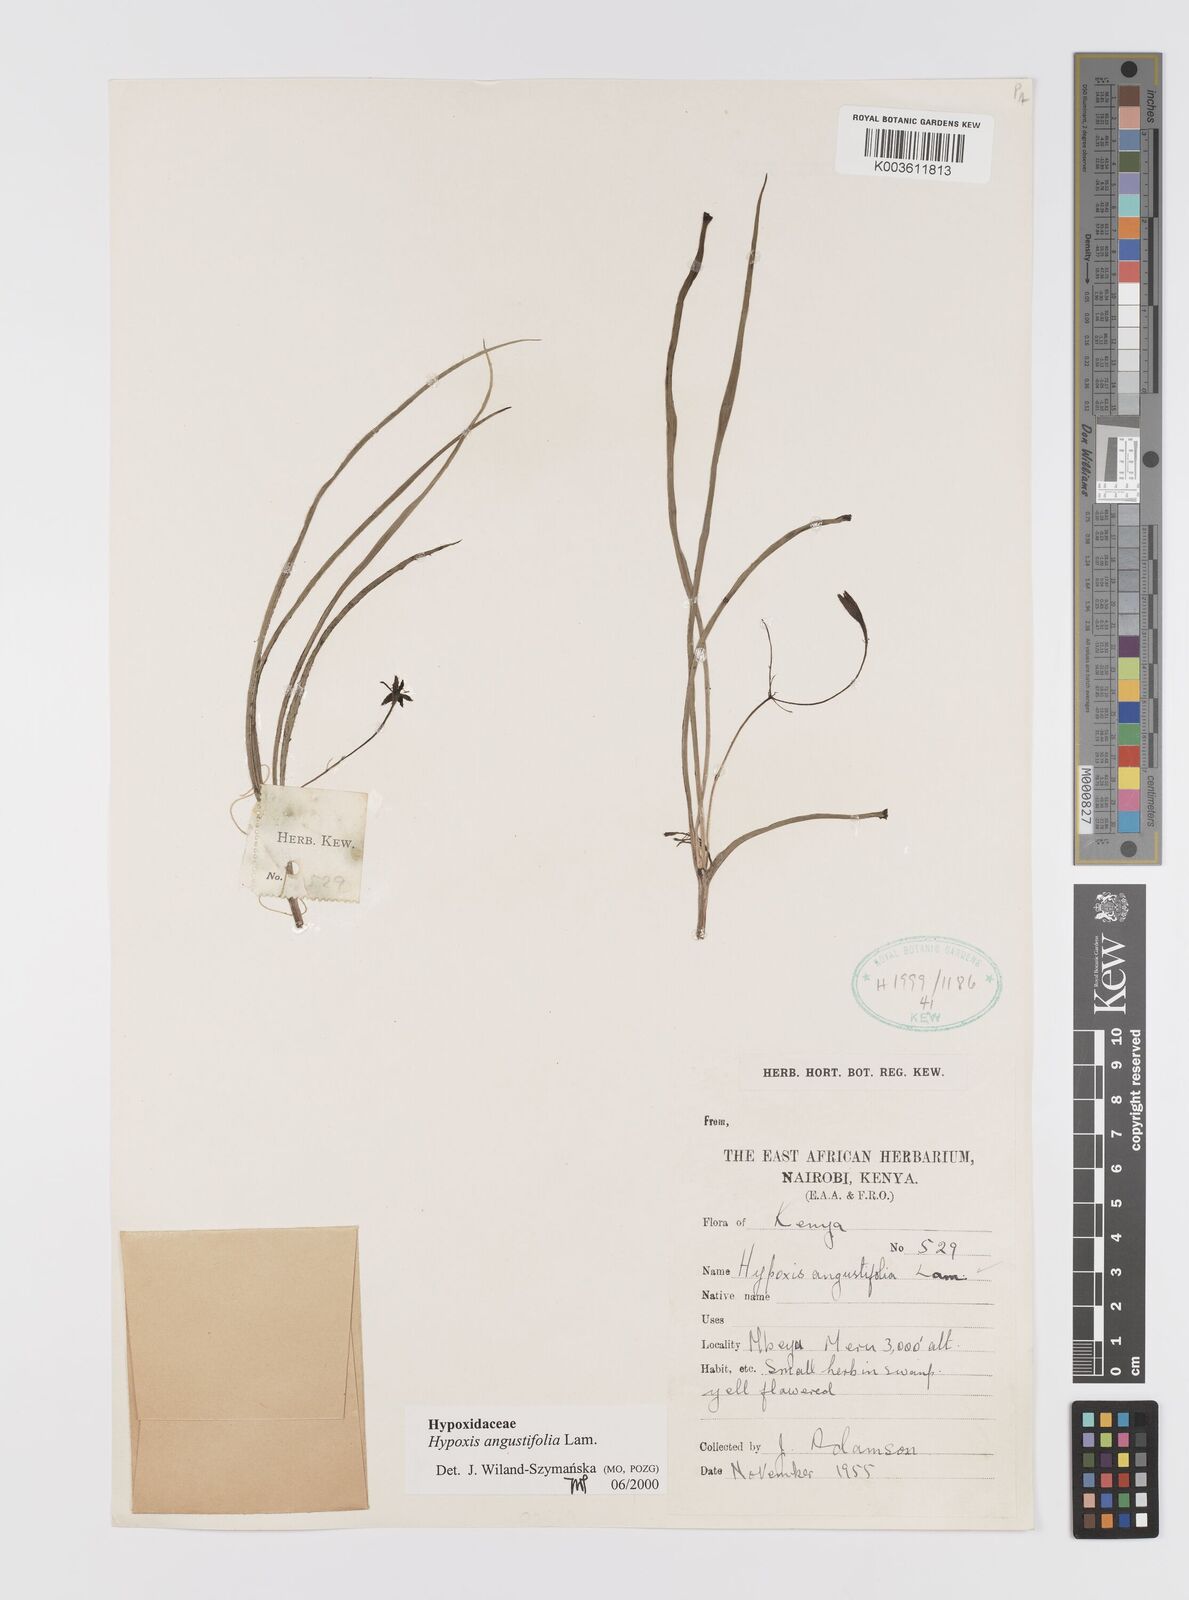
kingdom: Plantae
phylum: Tracheophyta
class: Liliopsida
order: Asparagales
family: Hypoxidaceae
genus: Hypoxis
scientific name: Hypoxis angustifolia
